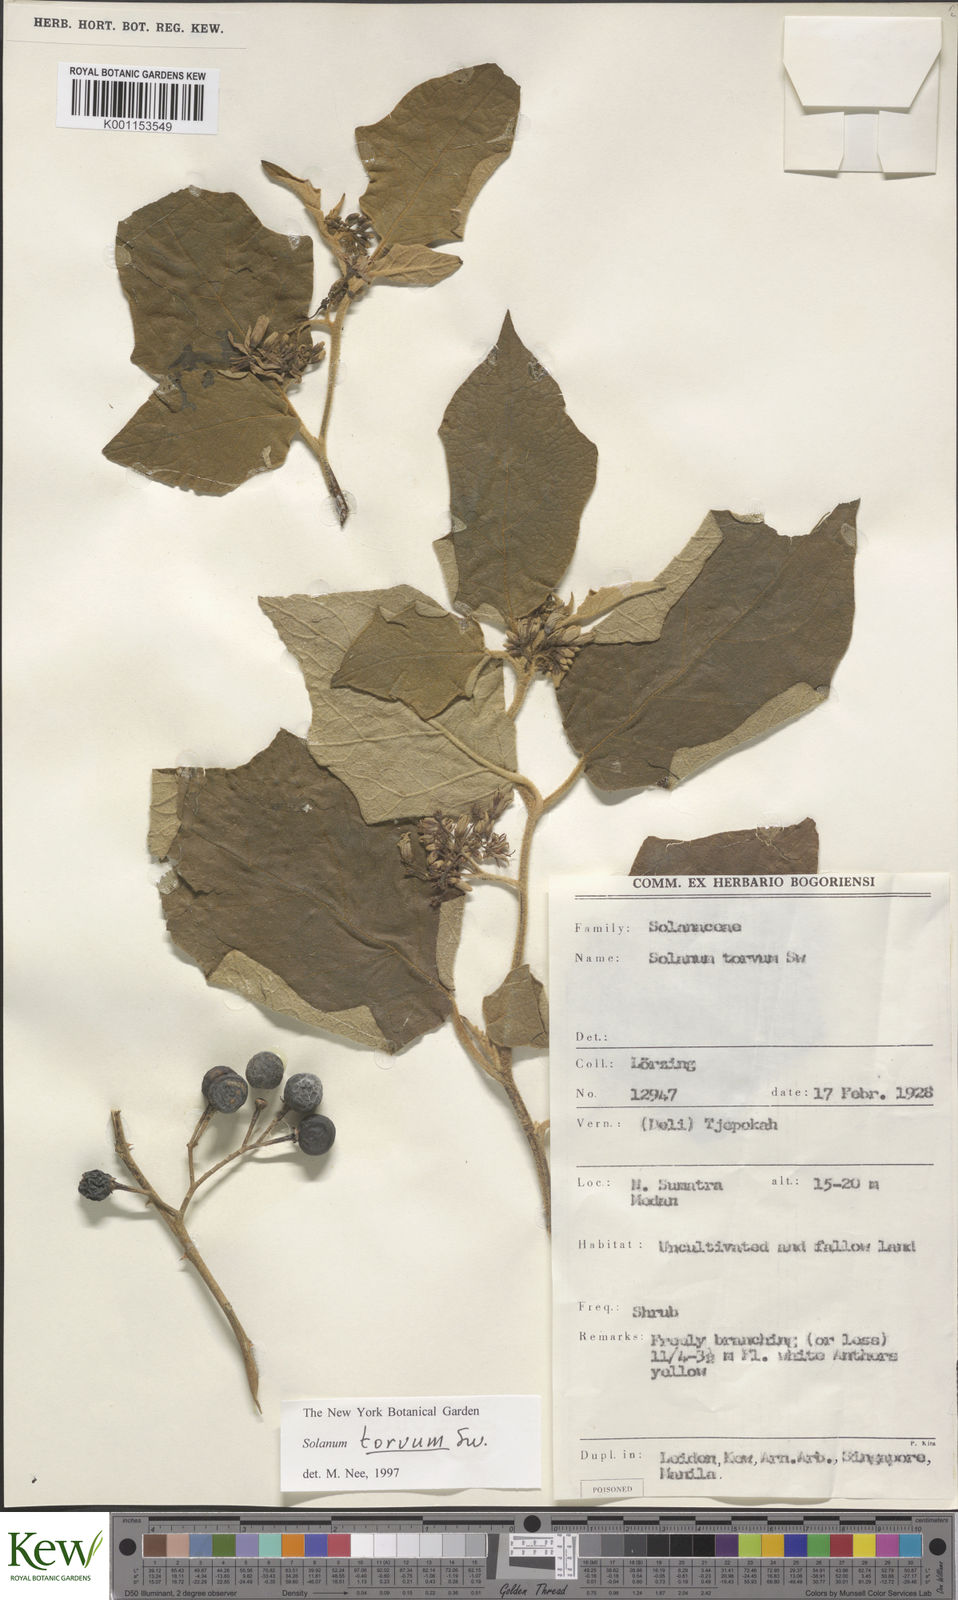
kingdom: Plantae
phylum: Tracheophyta
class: Magnoliopsida
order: Solanales
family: Solanaceae
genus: Solanum
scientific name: Solanum
